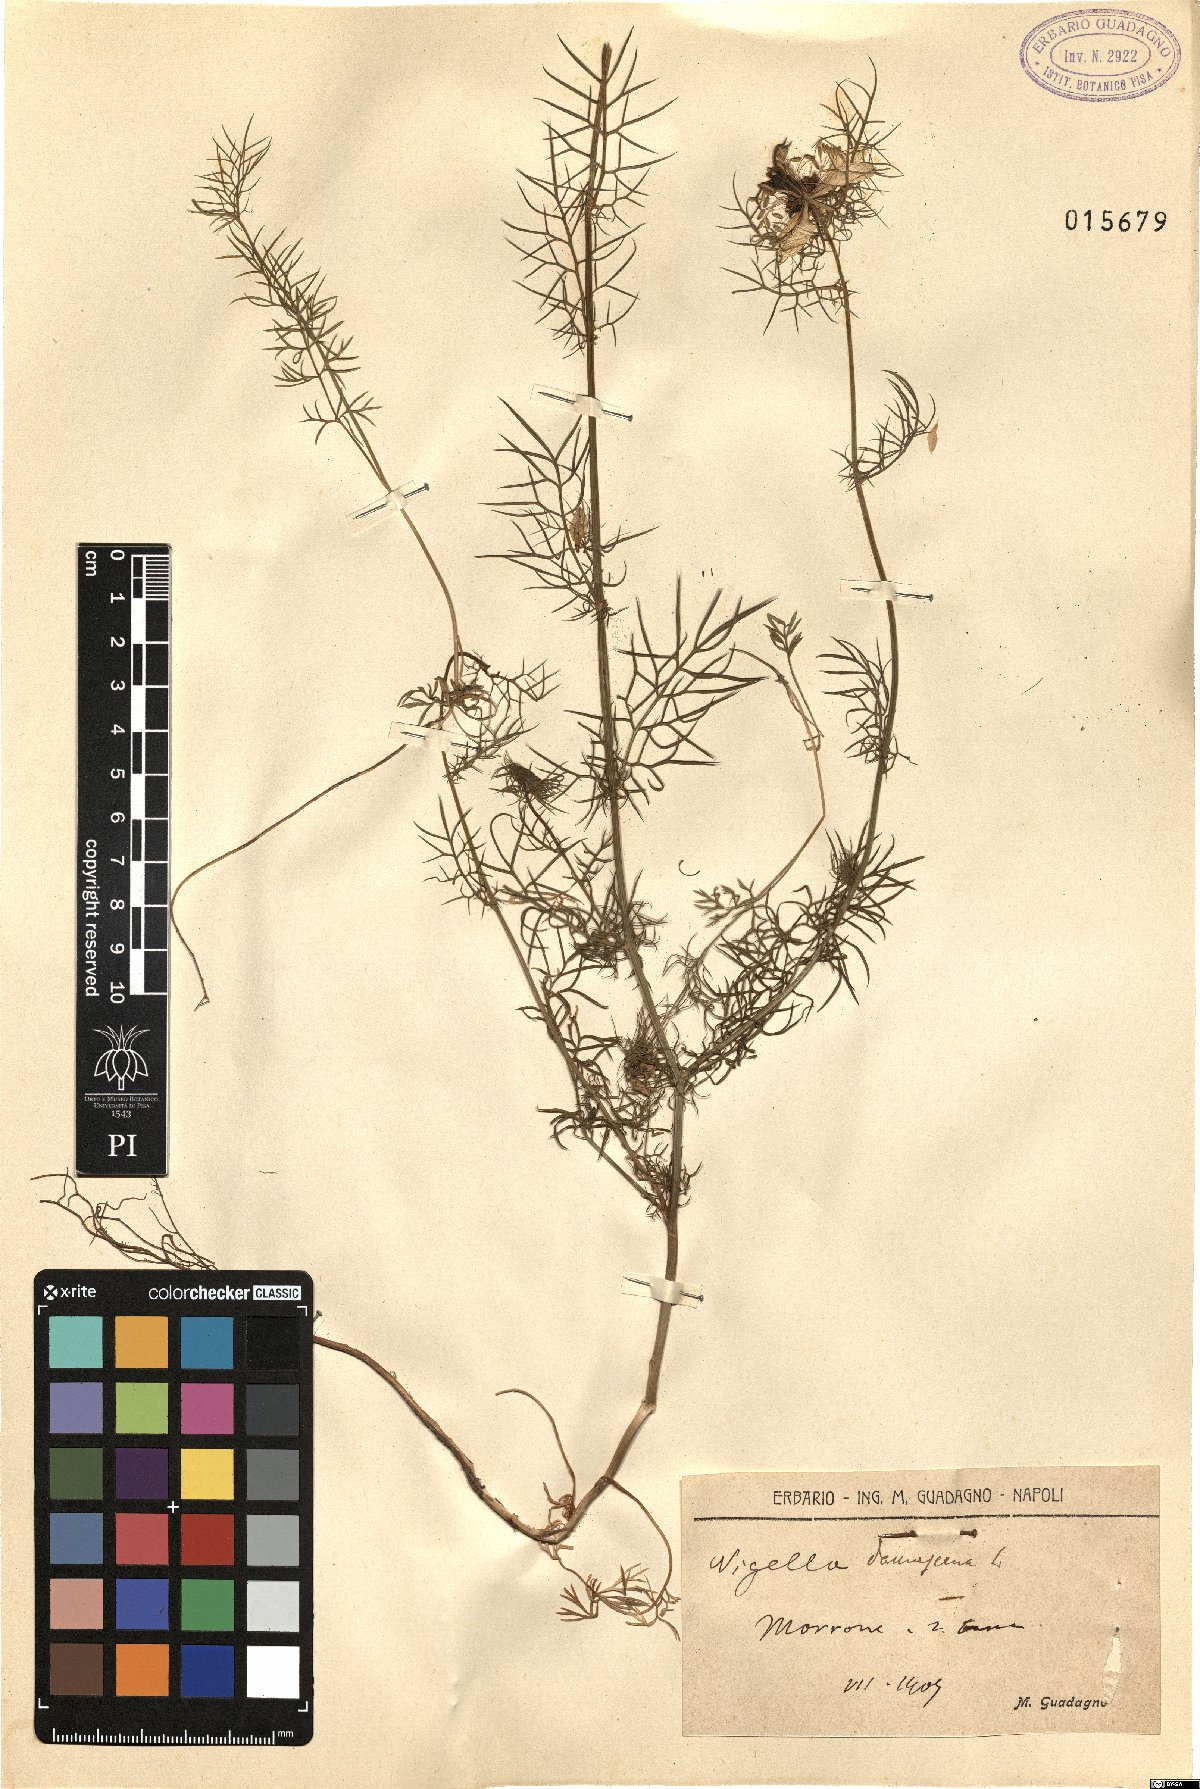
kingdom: Plantae
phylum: Tracheophyta
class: Magnoliopsida
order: Ranunculales
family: Ranunculaceae
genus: Nigella
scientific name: Nigella damascena
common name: Love-in-a-mist
